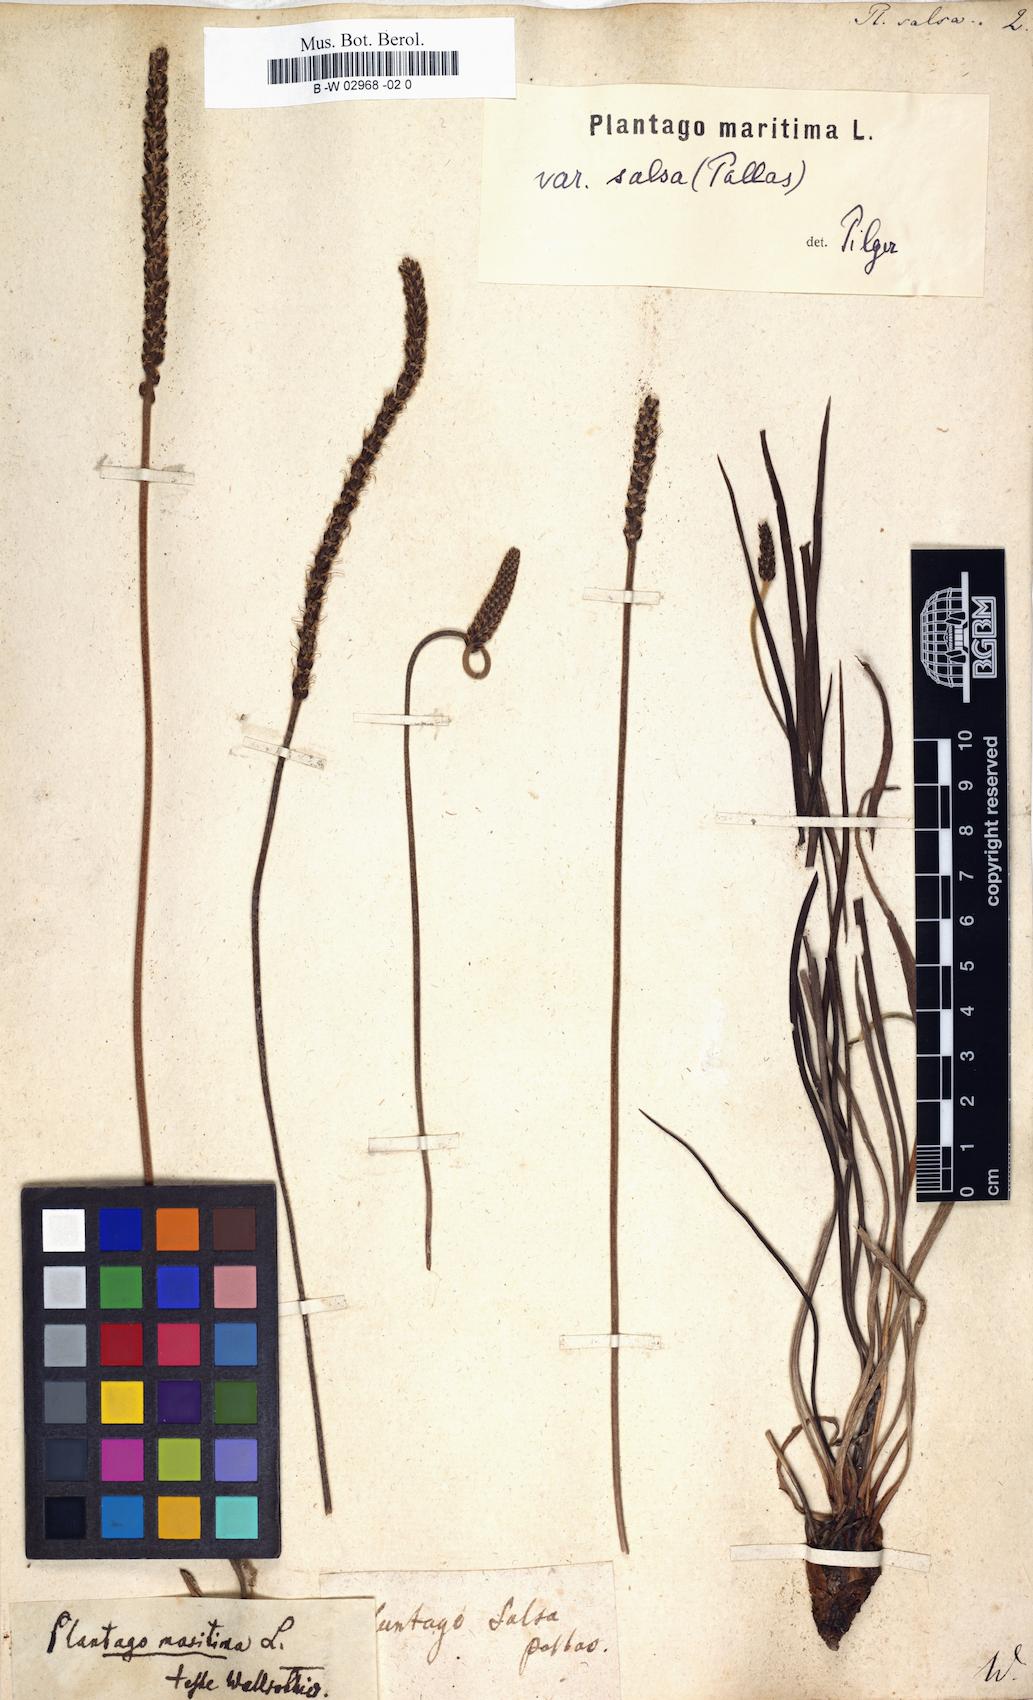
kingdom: Plantae
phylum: Tracheophyta
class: Magnoliopsida
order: Lamiales
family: Plantaginaceae
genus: Plantago
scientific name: Plantago salsa
